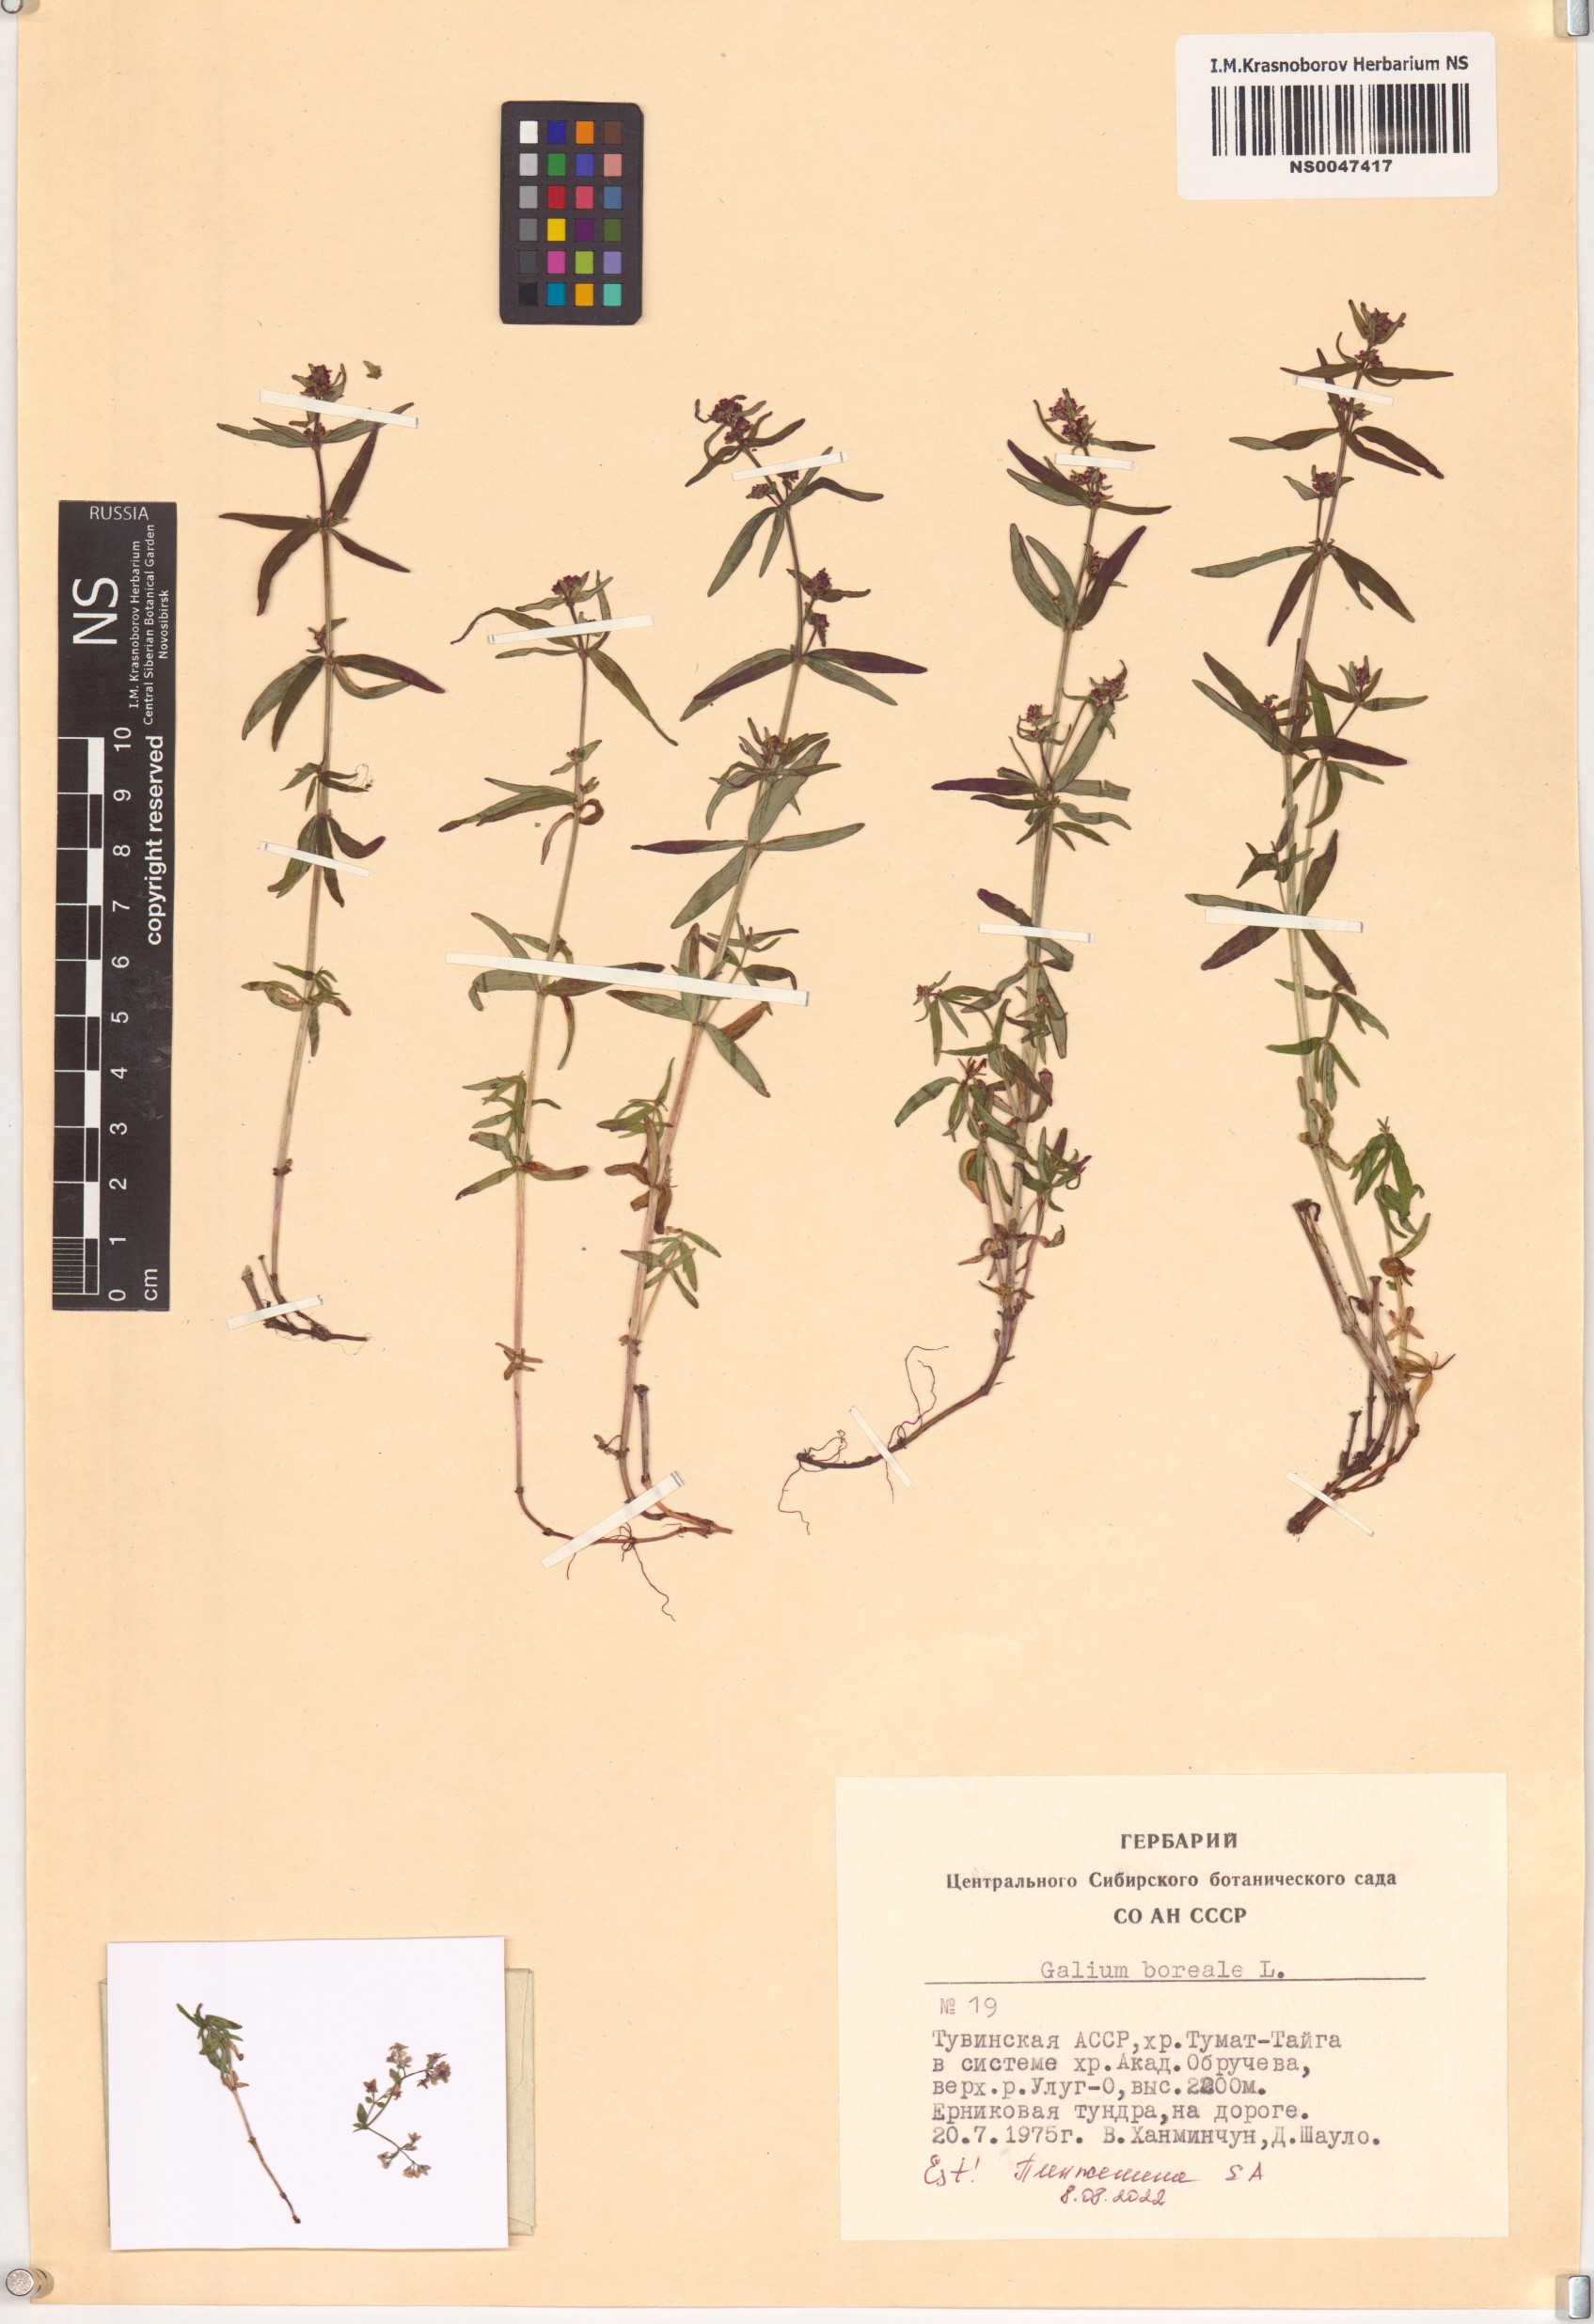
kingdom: Plantae
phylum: Tracheophyta
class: Magnoliopsida
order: Gentianales
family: Rubiaceae
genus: Galium
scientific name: Galium boreale
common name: Northern bedstraw
